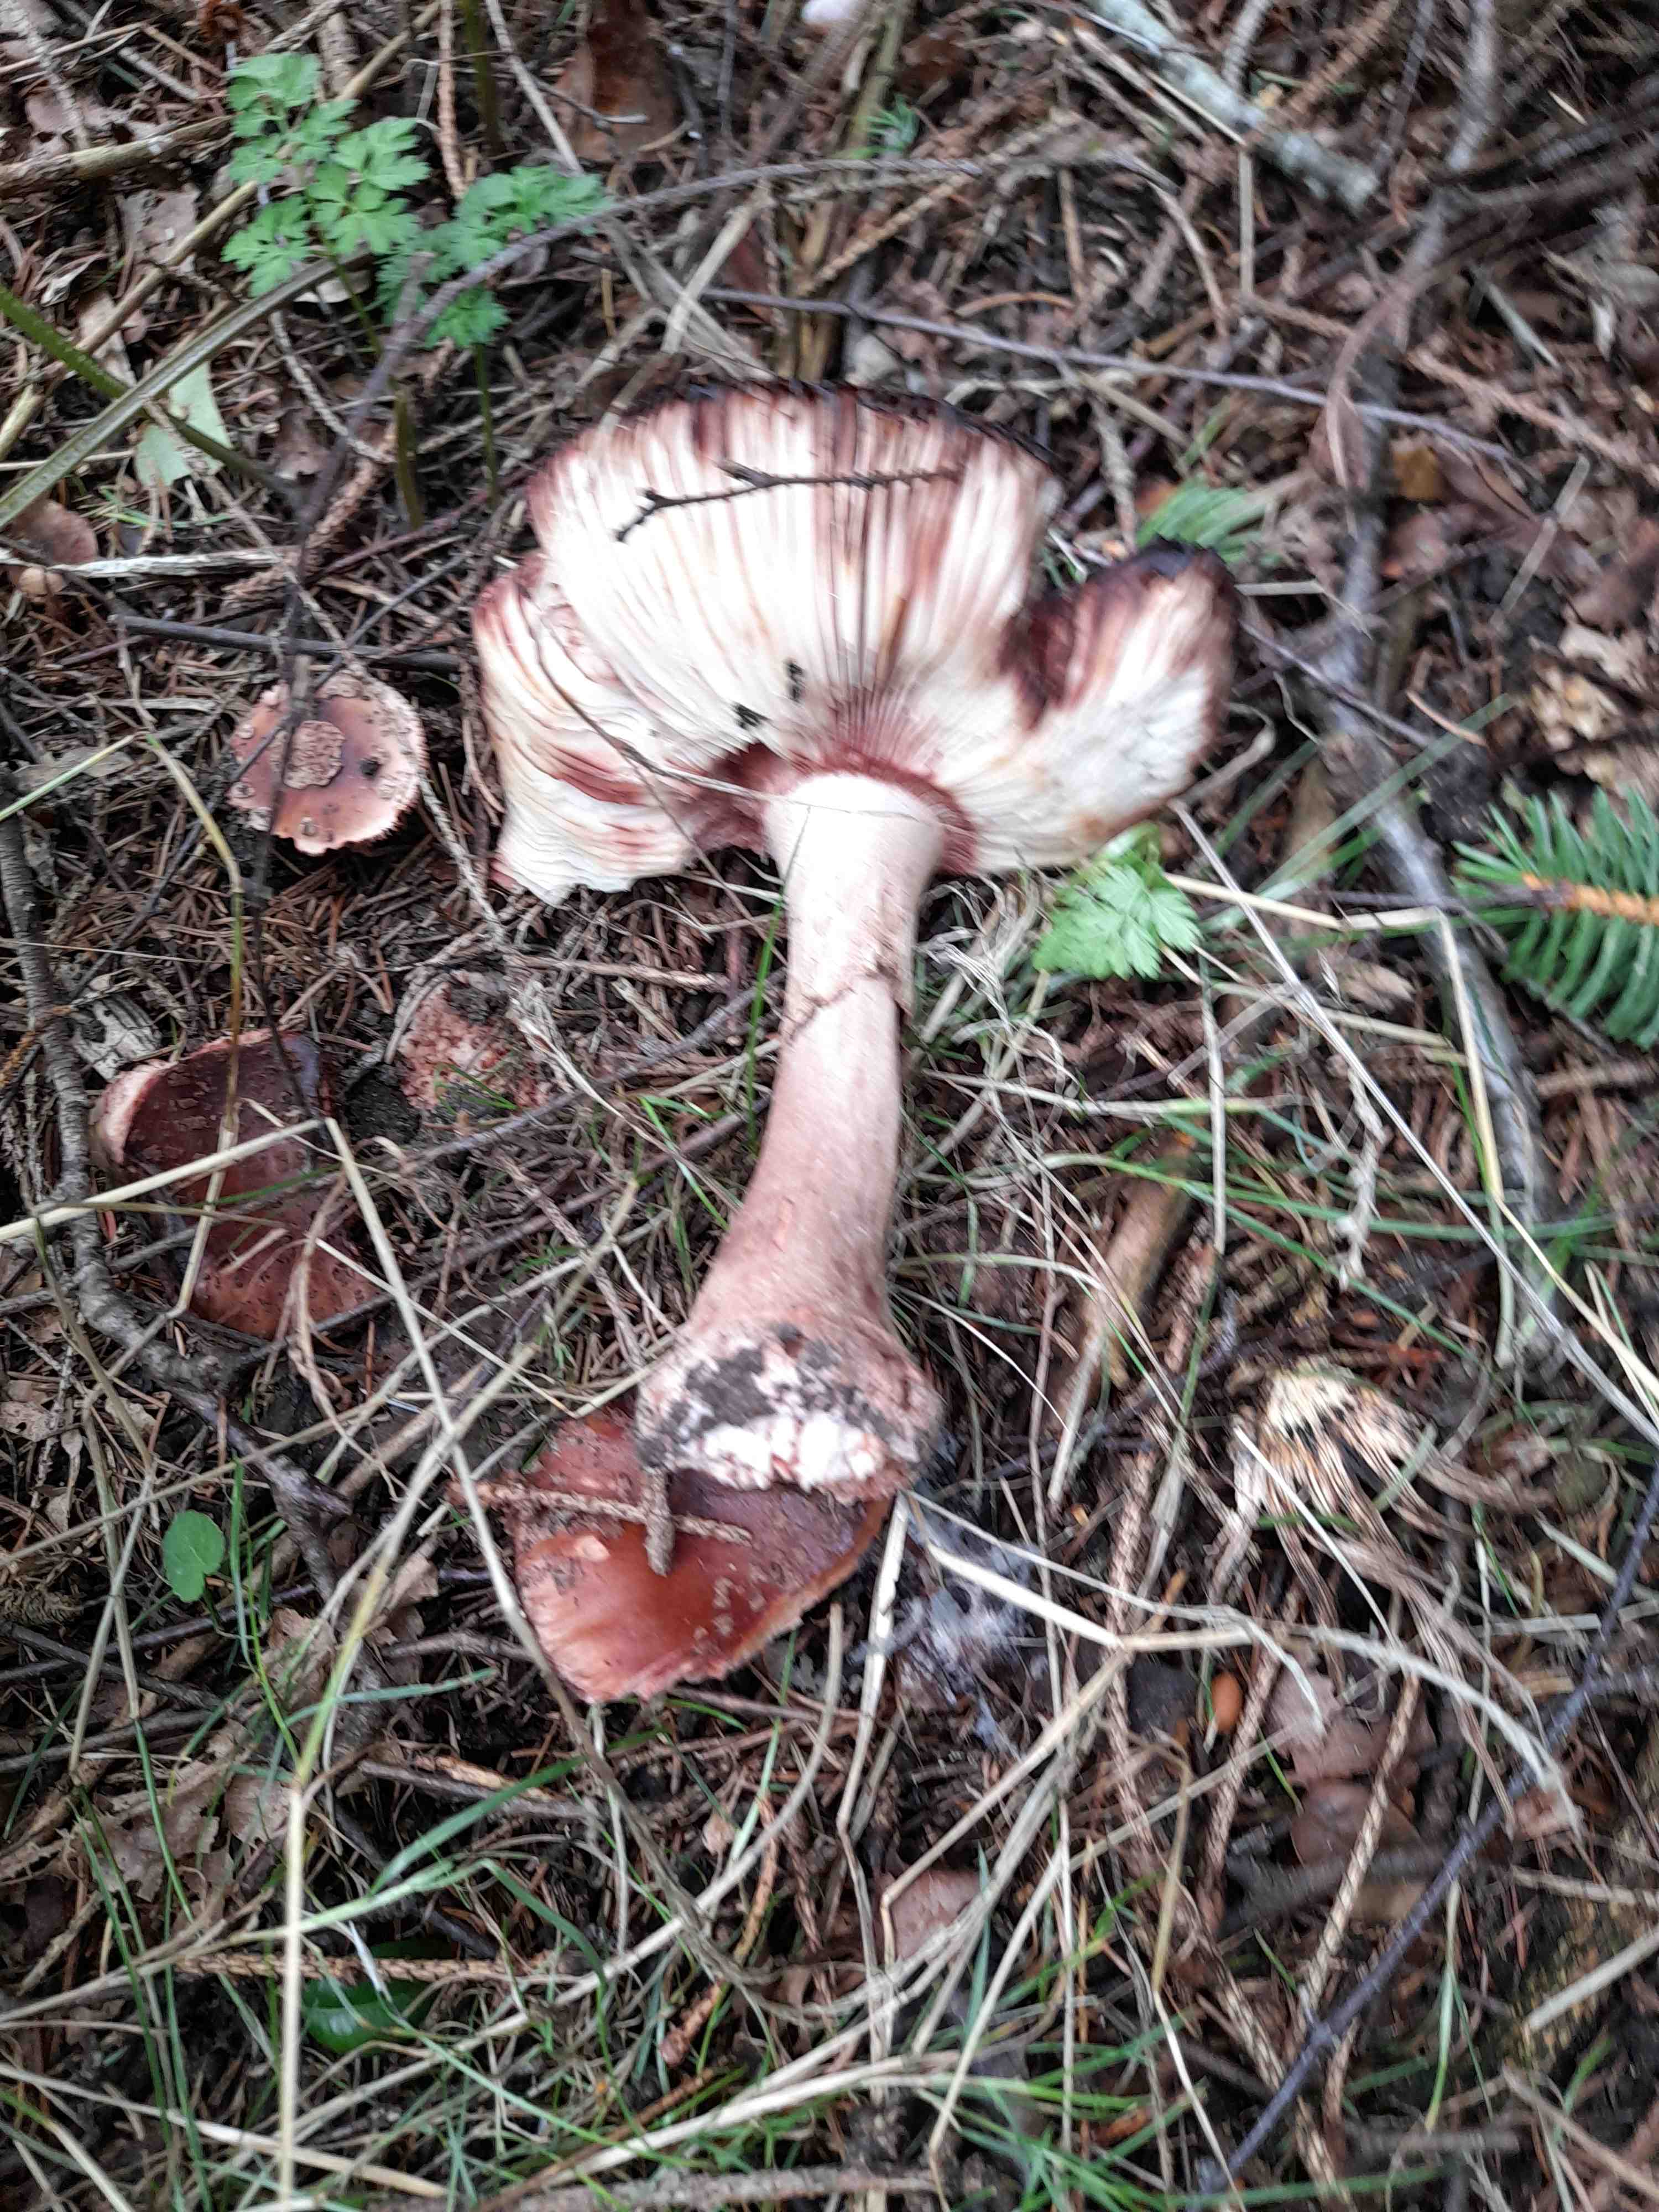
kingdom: Fungi
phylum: Basidiomycota
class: Agaricomycetes
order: Agaricales
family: Amanitaceae
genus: Amanita
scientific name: Amanita rubescens
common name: rødmende fluesvamp
